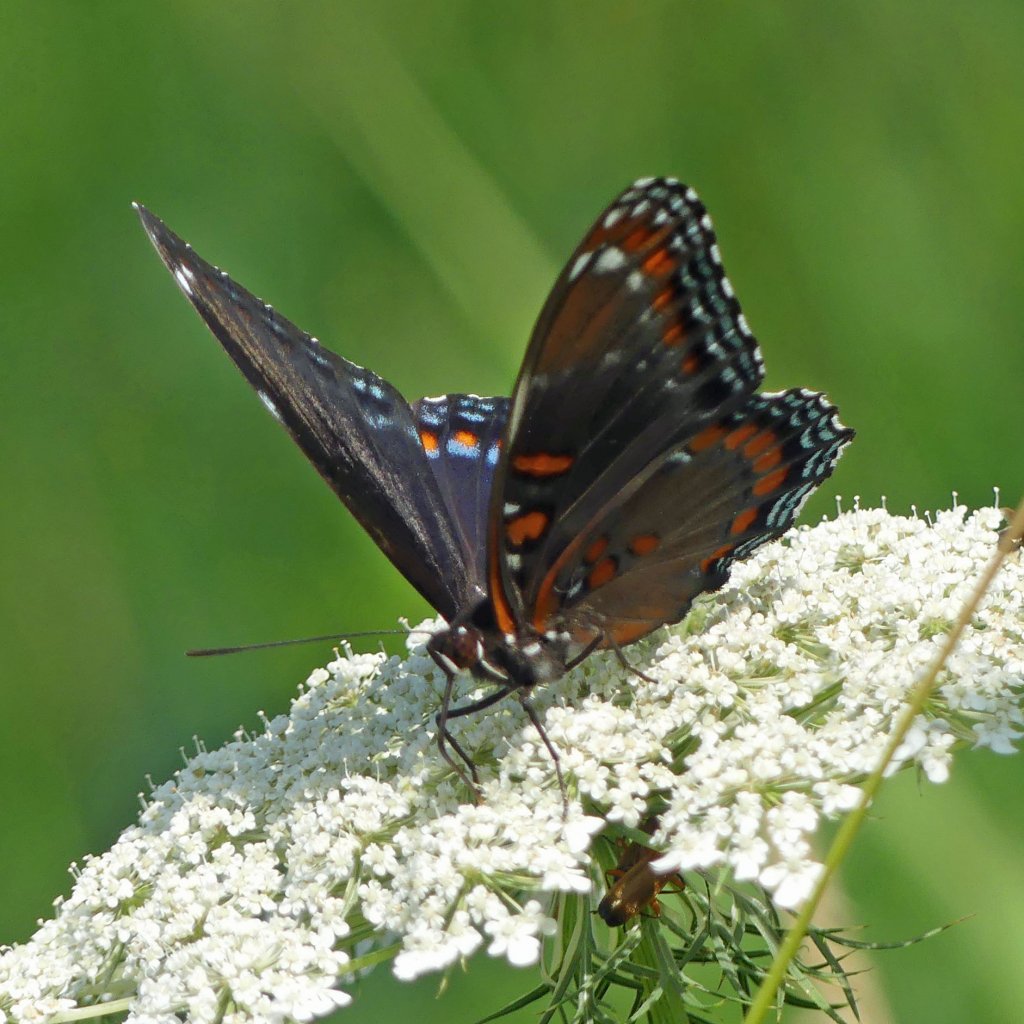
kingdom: Animalia
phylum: Arthropoda
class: Insecta
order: Lepidoptera
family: Nymphalidae
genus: Limenitis
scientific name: Limenitis astyanax
